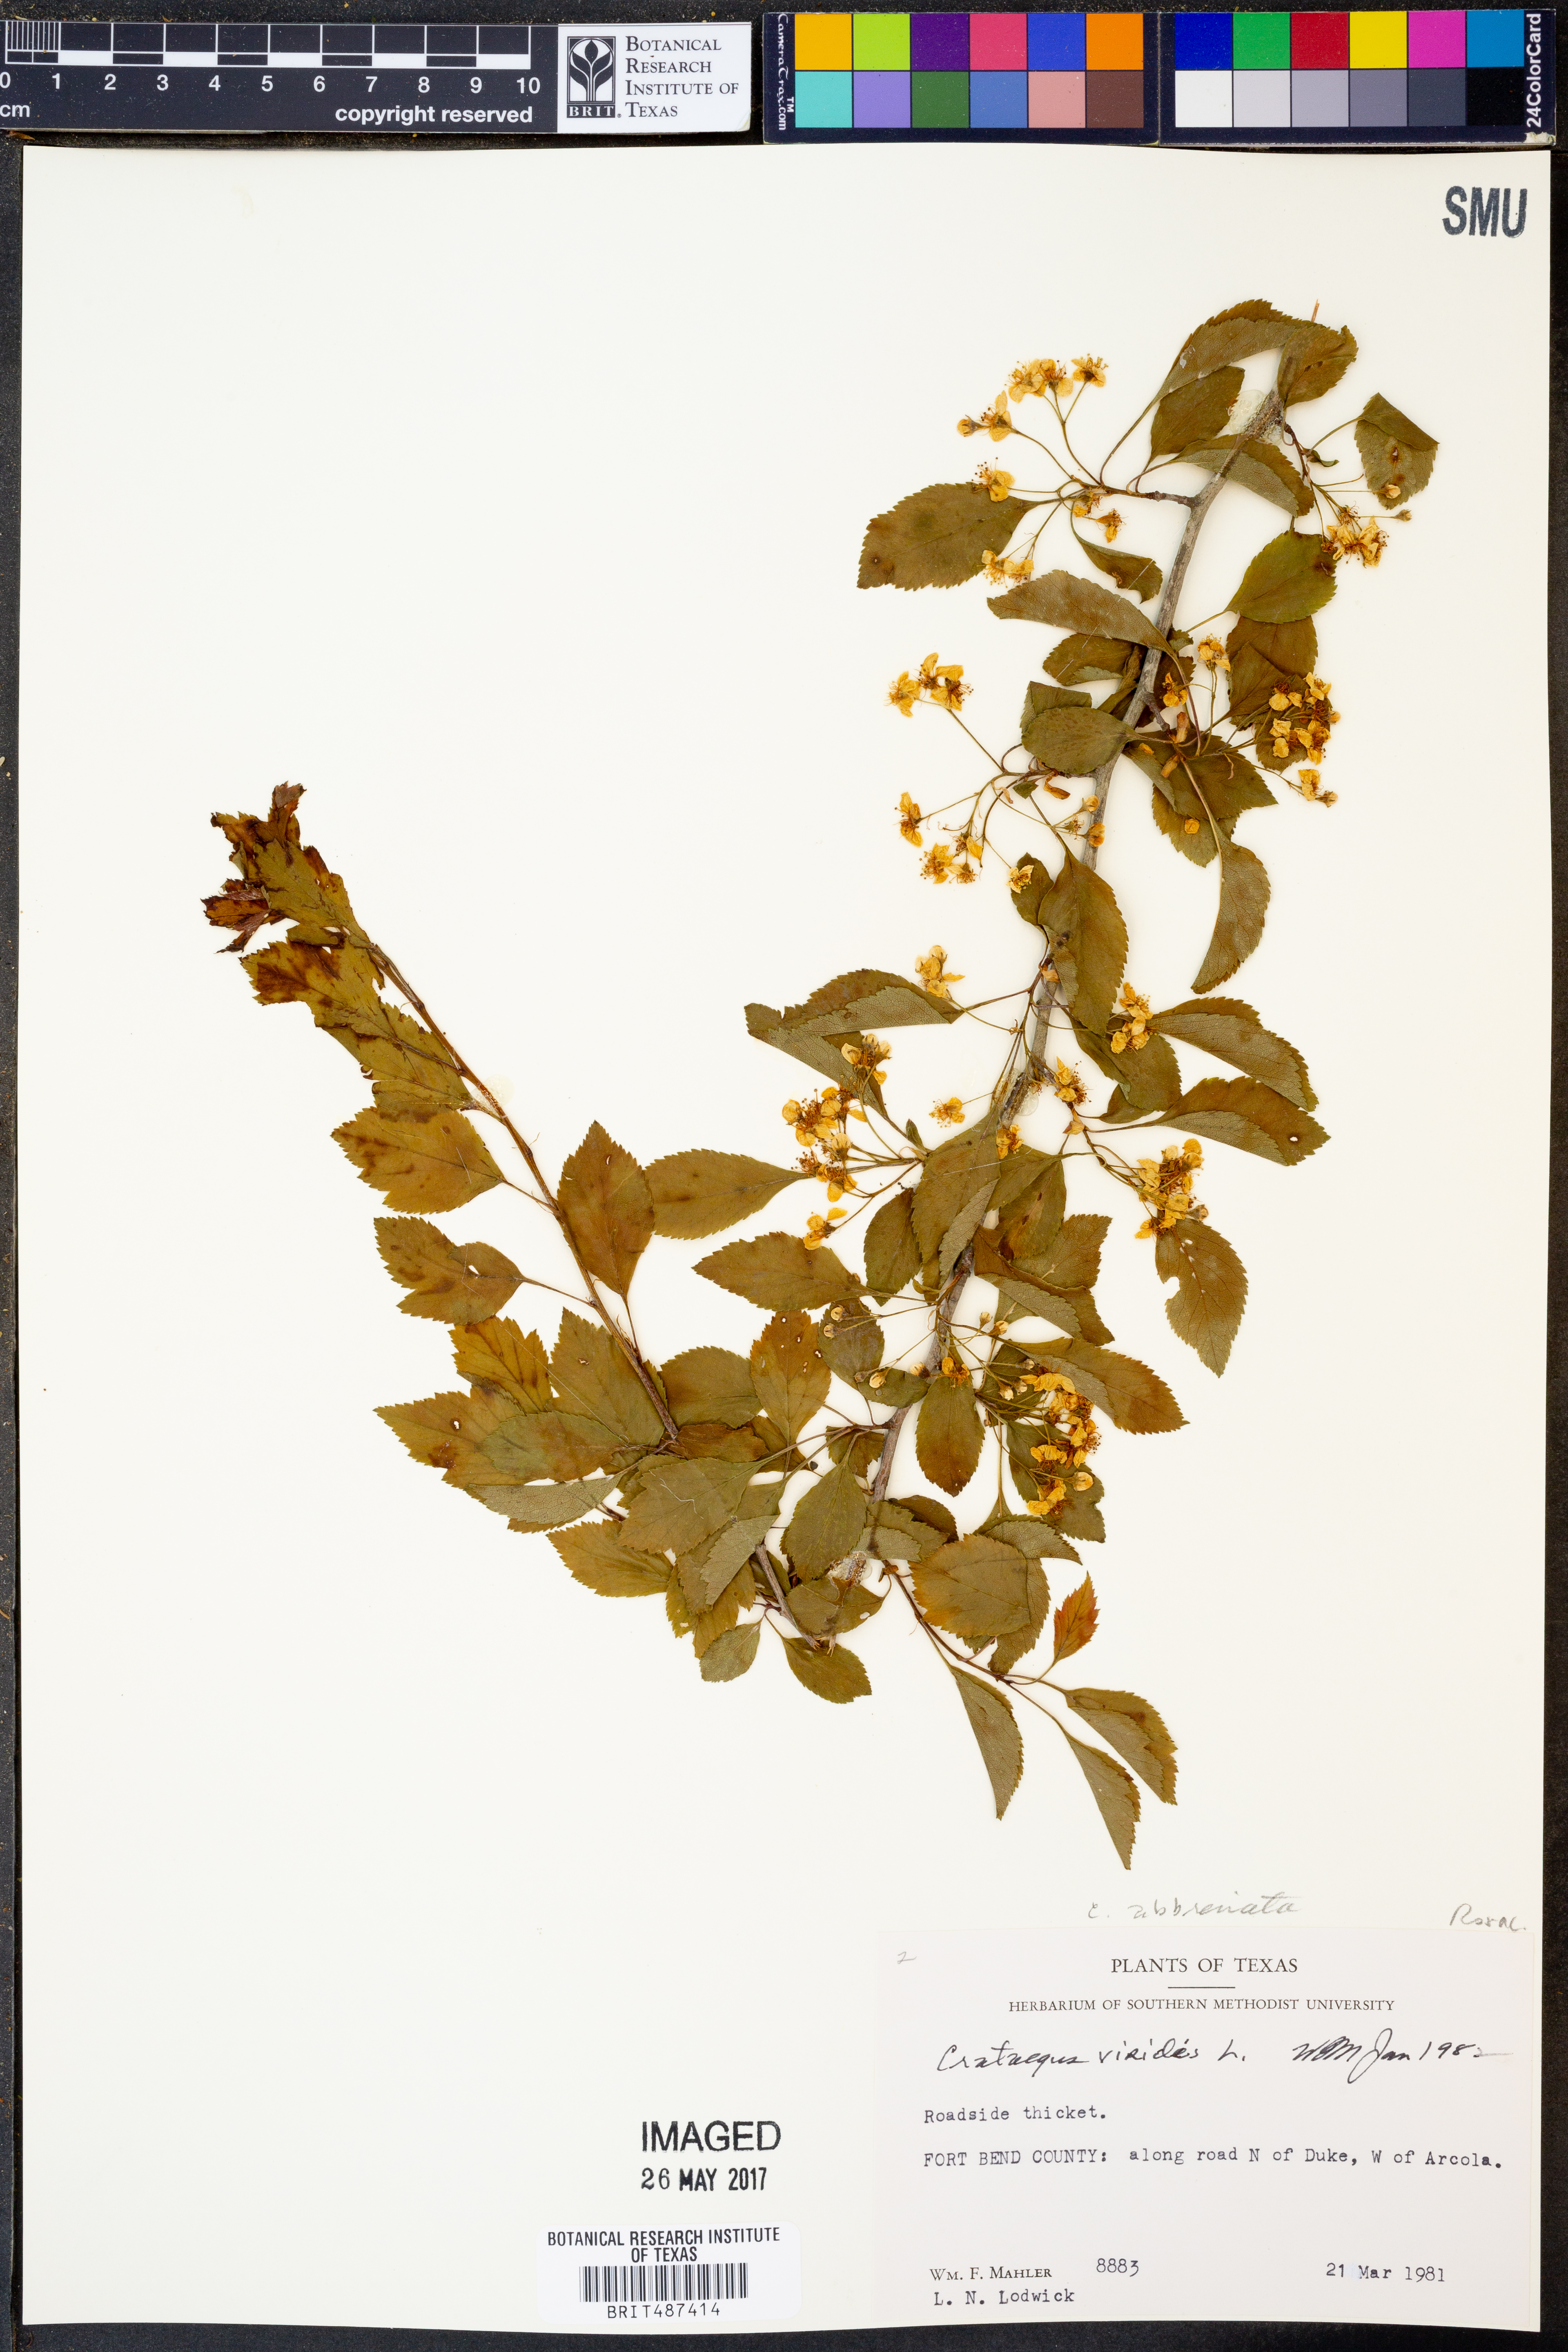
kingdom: Plantae
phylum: Tracheophyta
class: Magnoliopsida
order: Rosales
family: Rosaceae
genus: Crataegus
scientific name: Crataegus viridis
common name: Southernthorn
